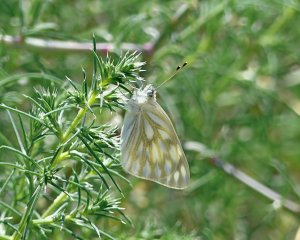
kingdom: Animalia
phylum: Arthropoda
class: Insecta
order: Lepidoptera
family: Pieridae
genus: Pontia
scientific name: Pontia occidentalis
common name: Western White
